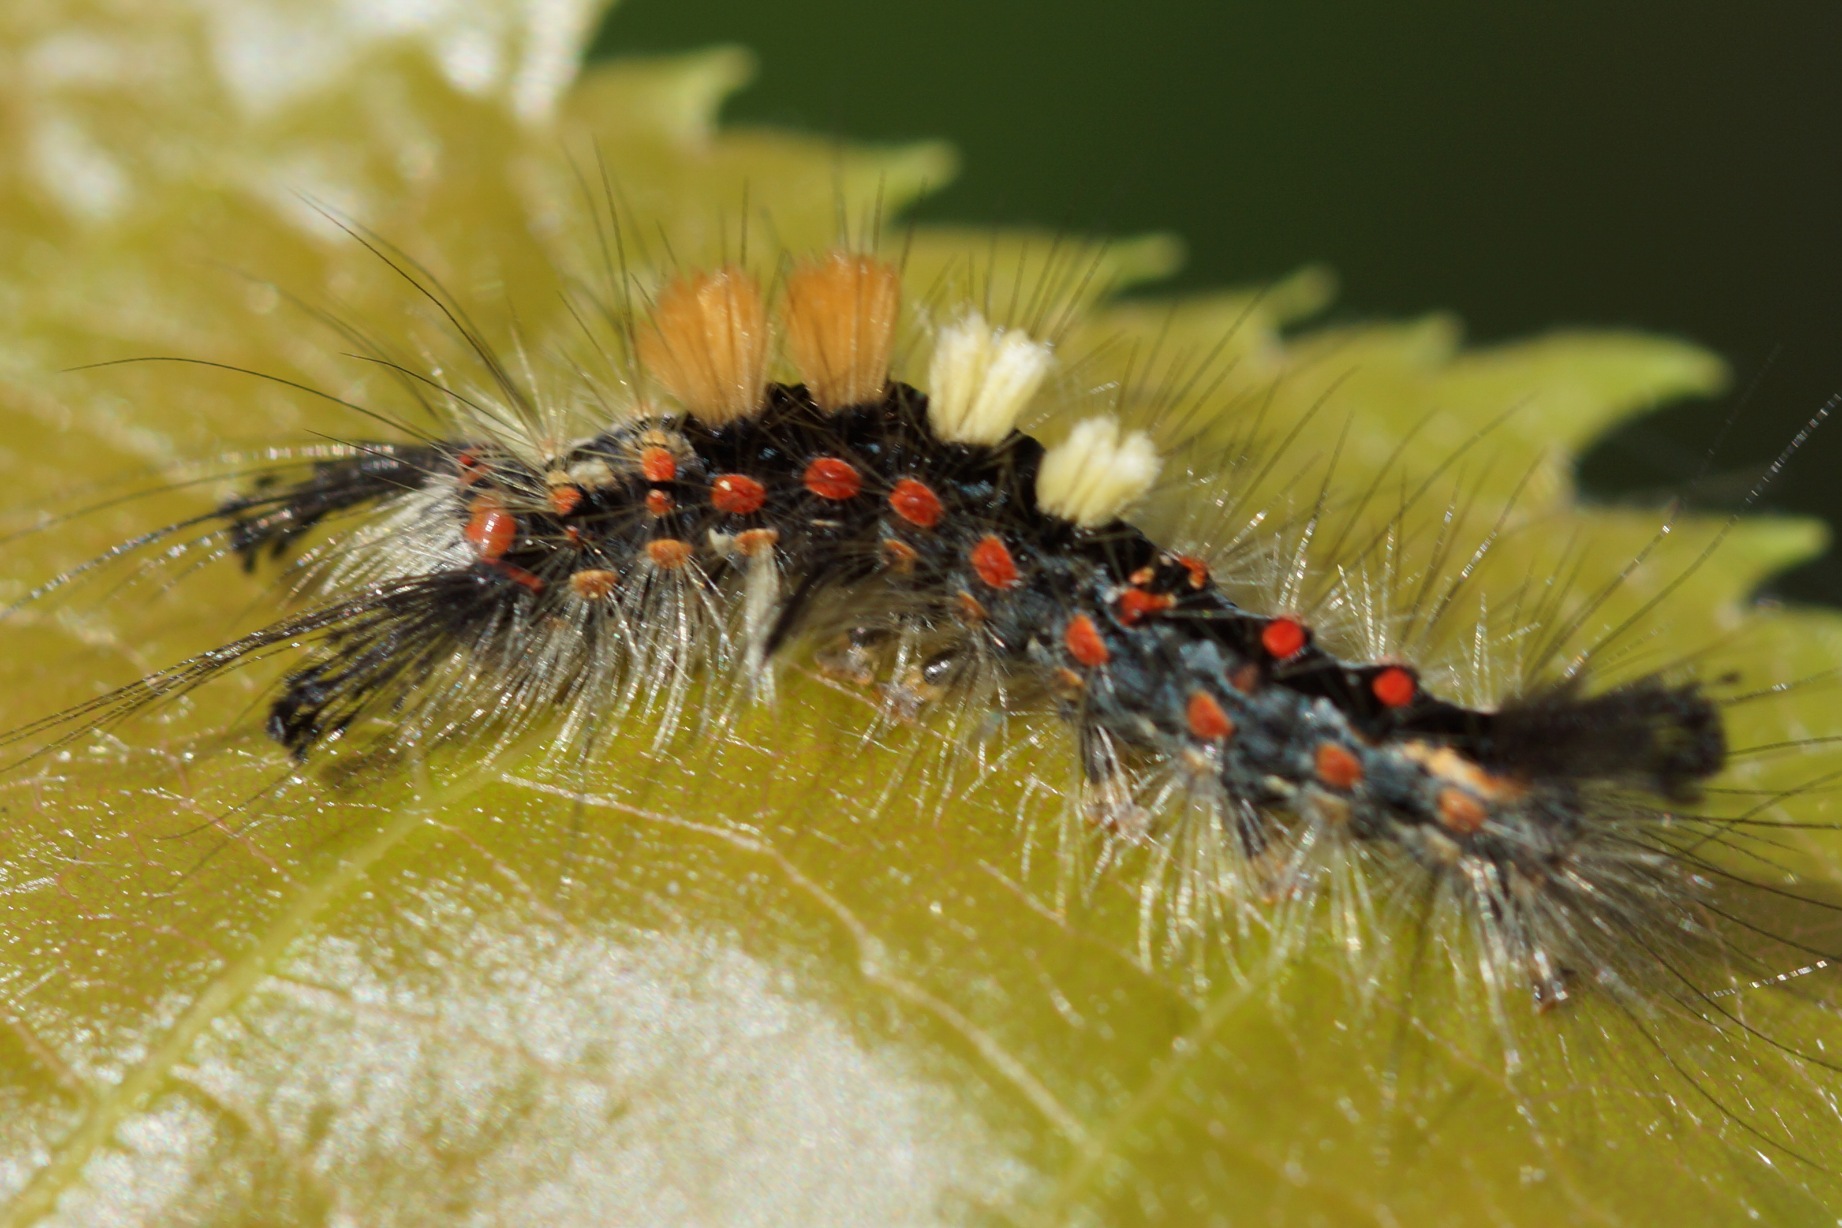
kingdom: Animalia
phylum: Arthropoda
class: Insecta
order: Lepidoptera
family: Erebidae
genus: Orgyia
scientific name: Orgyia antiqua
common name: Lille penselspinder
